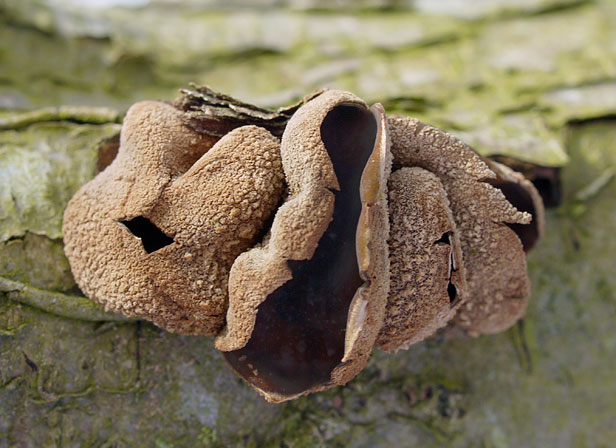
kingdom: Fungi
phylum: Ascomycota
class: Leotiomycetes
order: Helotiales
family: Cenangiaceae
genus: Encoelia
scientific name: Encoelia furfuracea
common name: hassel-læderskive
